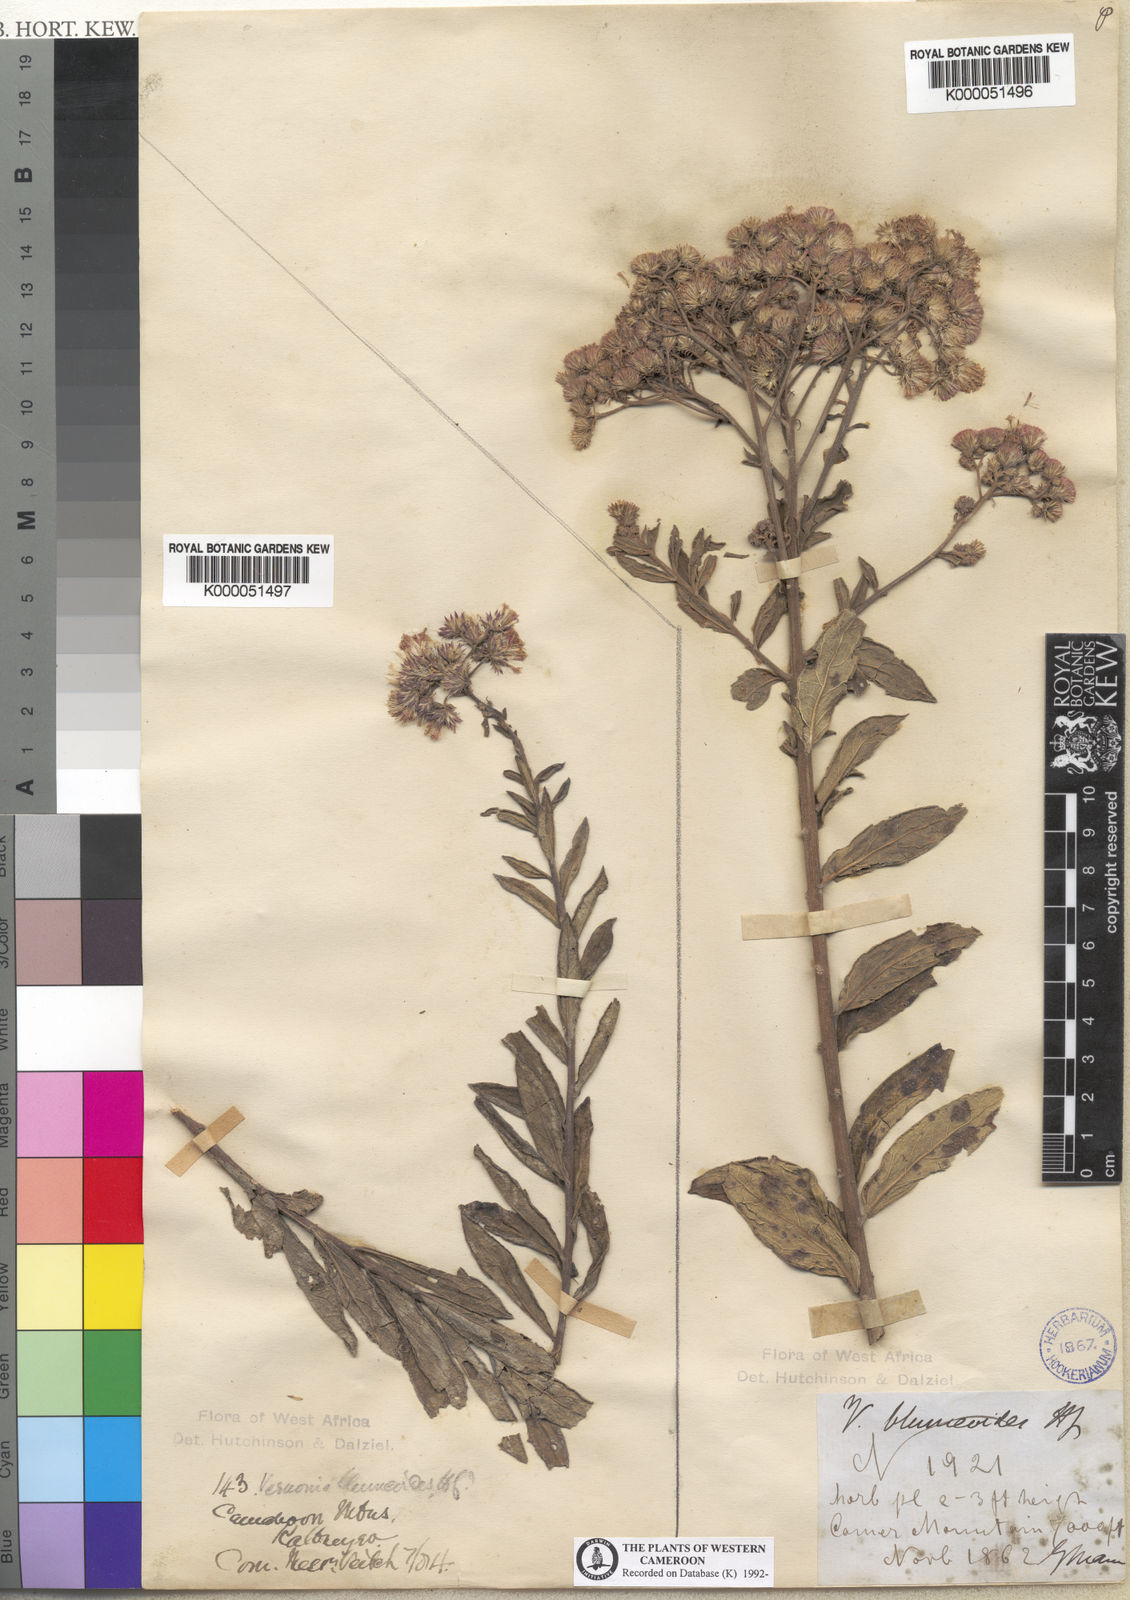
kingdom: Plantae
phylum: Tracheophyta
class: Magnoliopsida
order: Asterales
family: Asteraceae
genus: Orbivestus
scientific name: Orbivestus blumeoides
